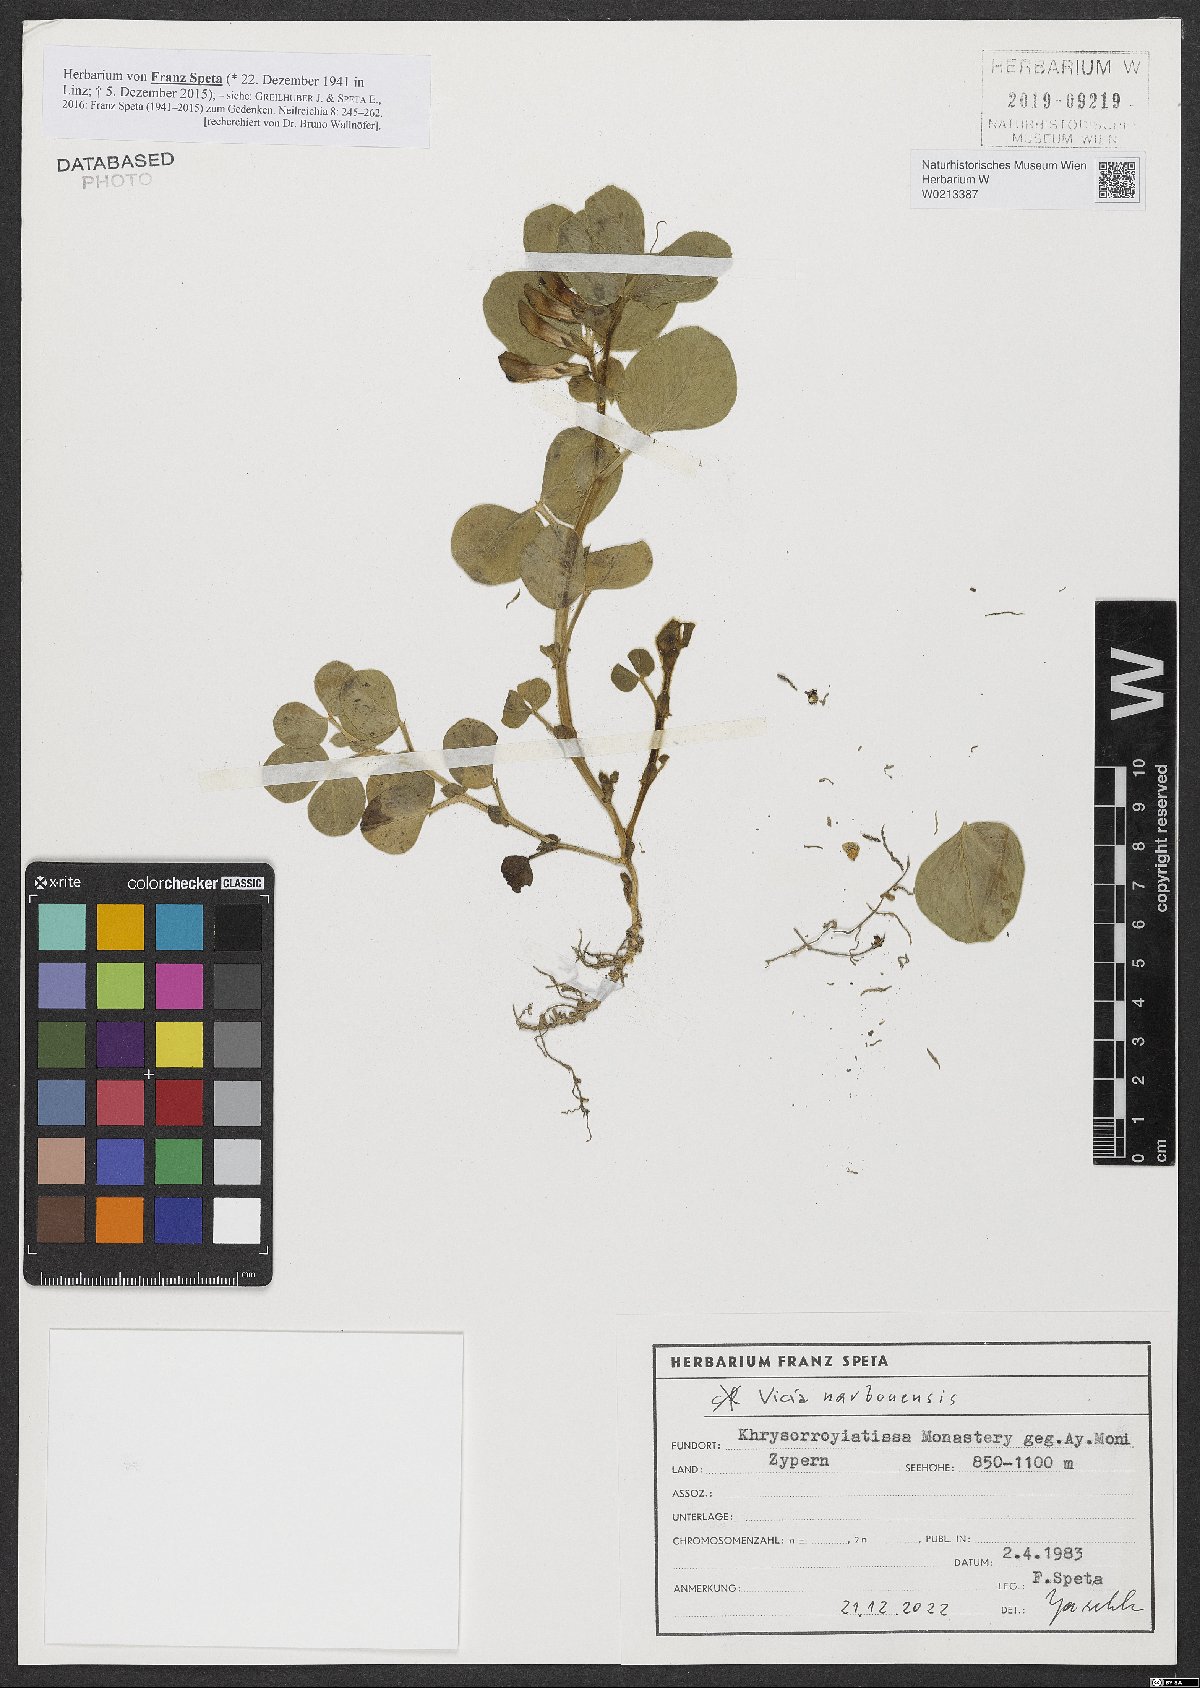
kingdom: Plantae
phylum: Tracheophyta
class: Magnoliopsida
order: Fabales
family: Fabaceae
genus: Vicia
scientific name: Vicia narbonensis
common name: Narbonne vetch
